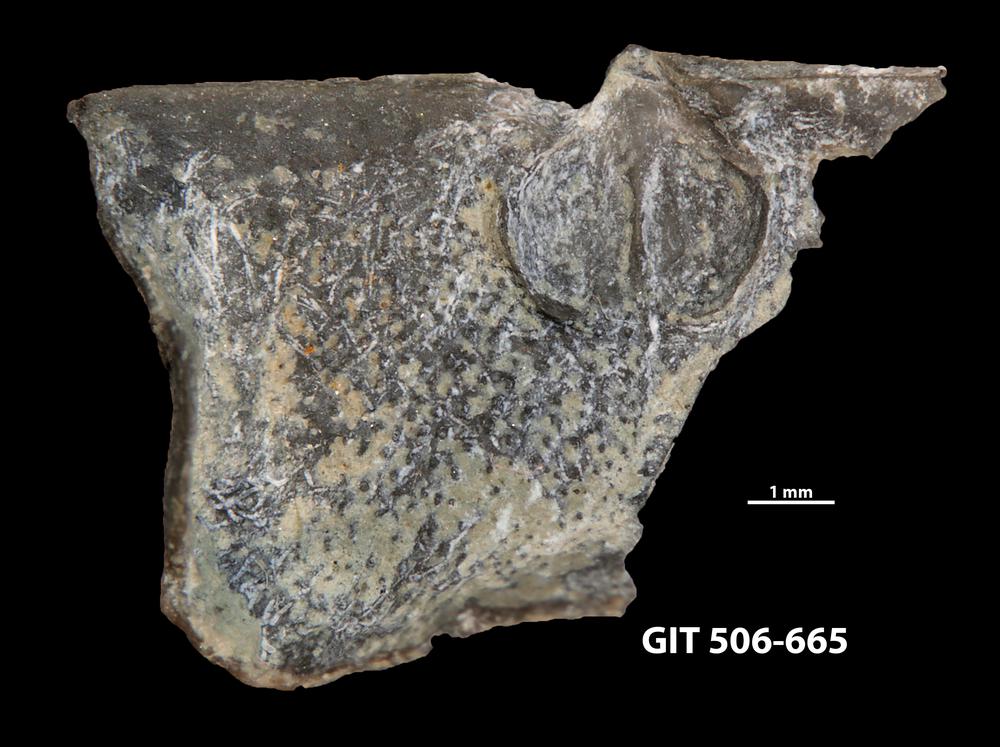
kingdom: Animalia
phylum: Brachiopoda
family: Strophomenidae
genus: Leptaena
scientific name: Leptaena altera
